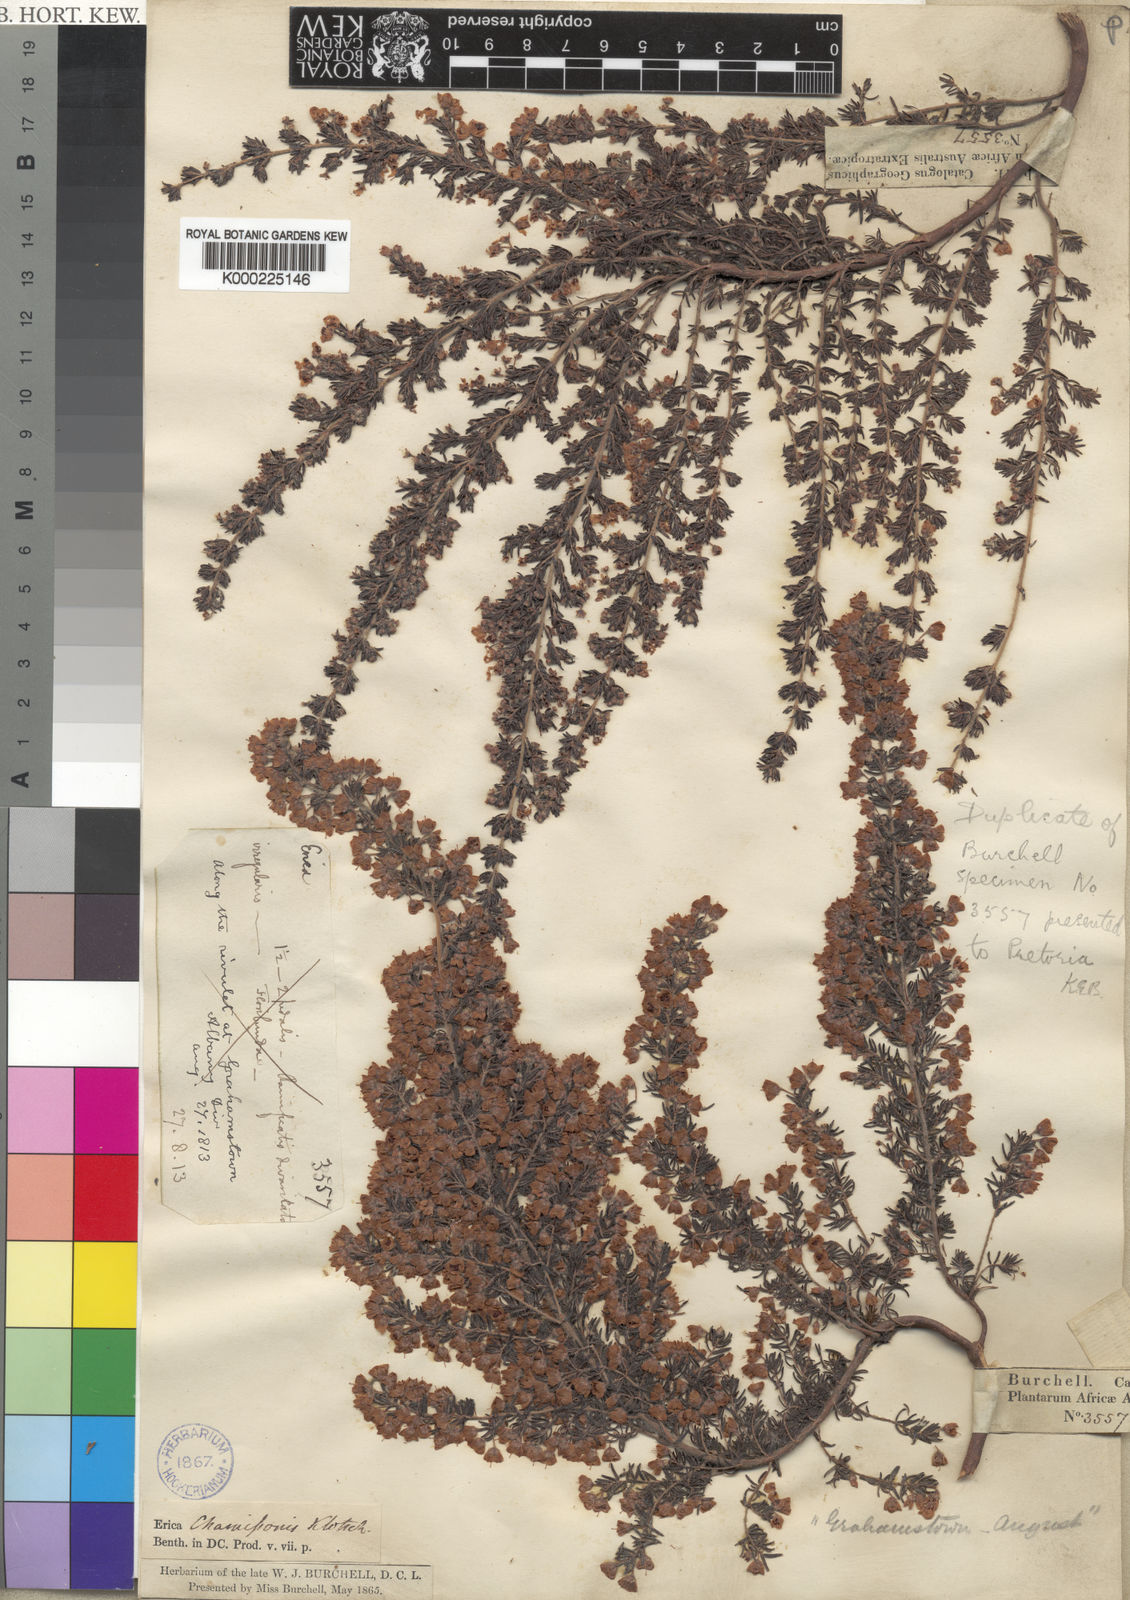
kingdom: Plantae
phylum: Tracheophyta
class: Magnoliopsida
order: Ericales
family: Ericaceae
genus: Erica
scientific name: Erica chamissonis
